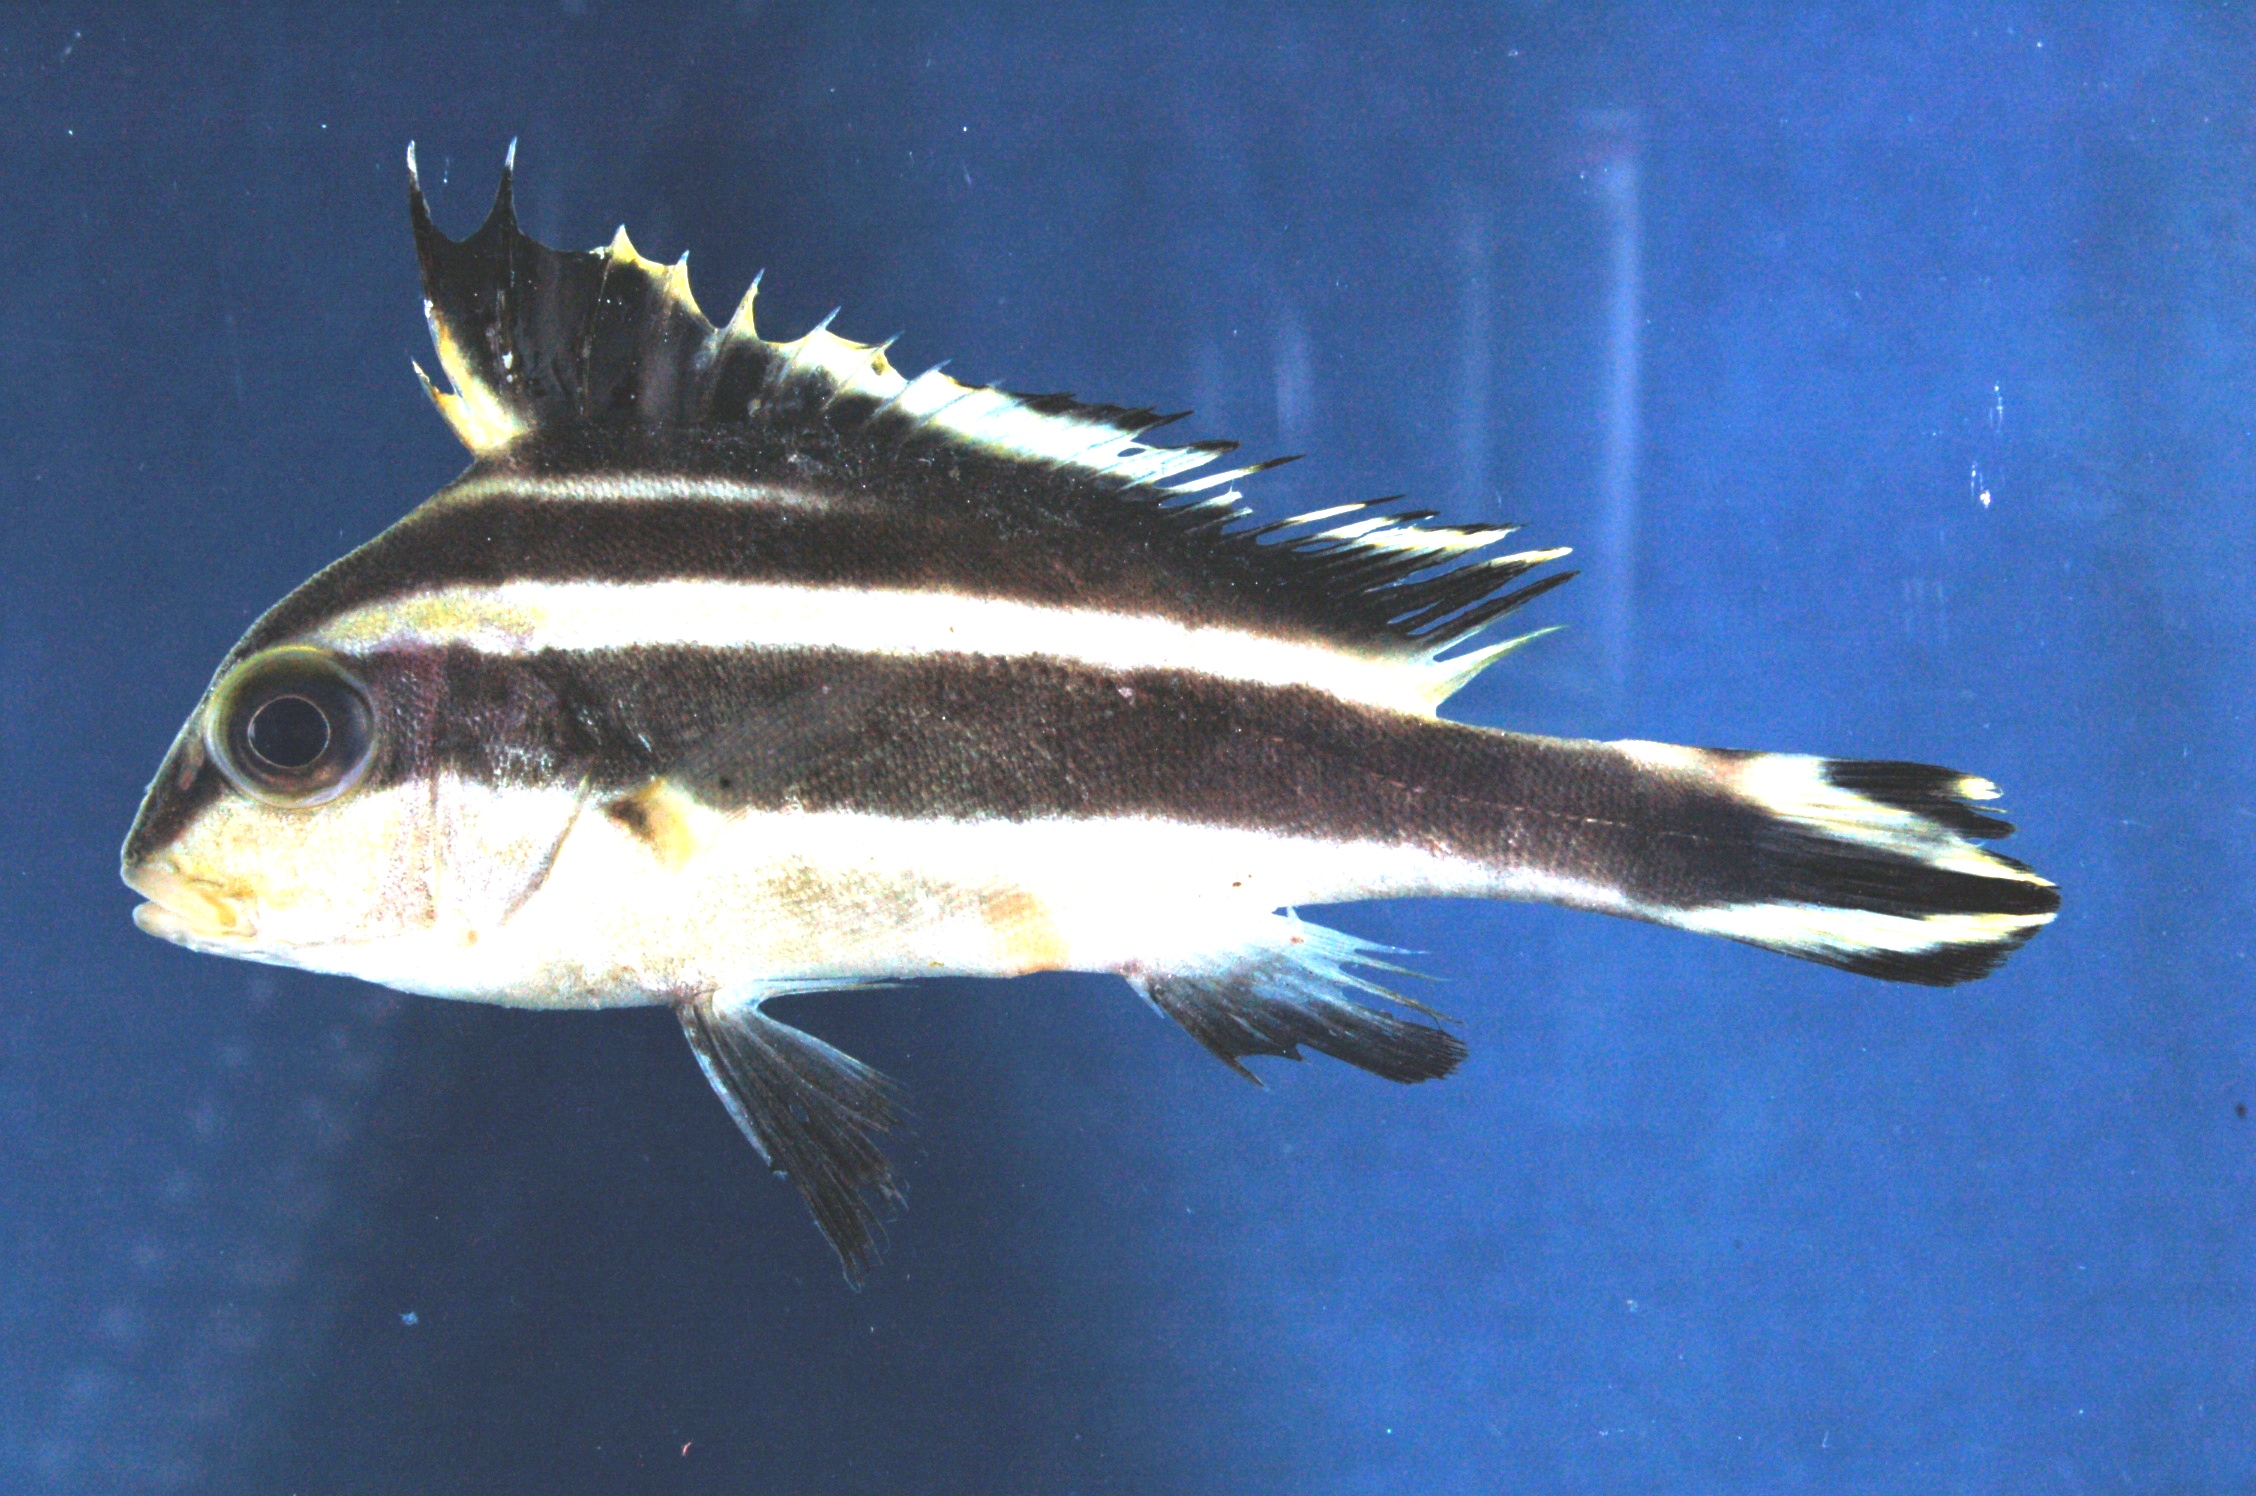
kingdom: Animalia
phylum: Chordata
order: Perciformes
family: Haemulidae
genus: Diagramma
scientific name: Diagramma centurio
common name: Sailfin rubberlip
